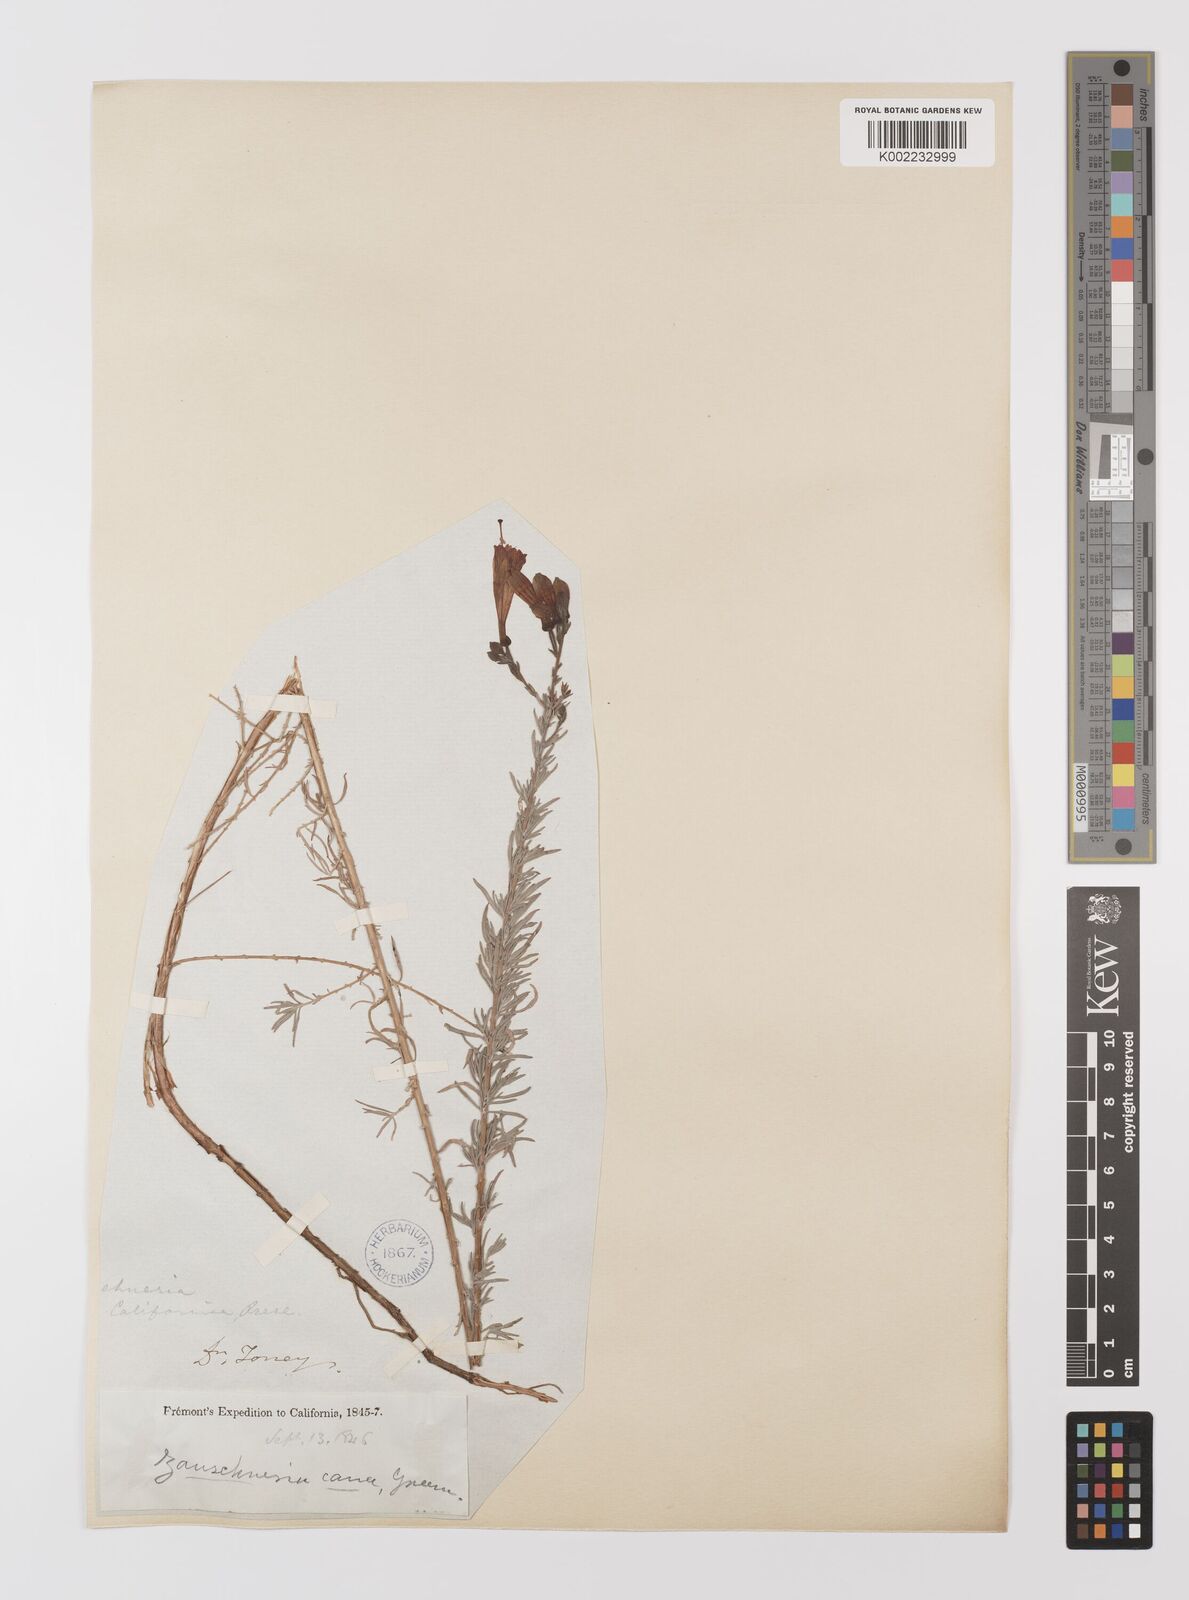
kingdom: Plantae
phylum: Tracheophyta
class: Magnoliopsida
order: Myrtales
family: Onagraceae
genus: Epilobium
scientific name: Epilobium canum
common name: California-fuchsia
